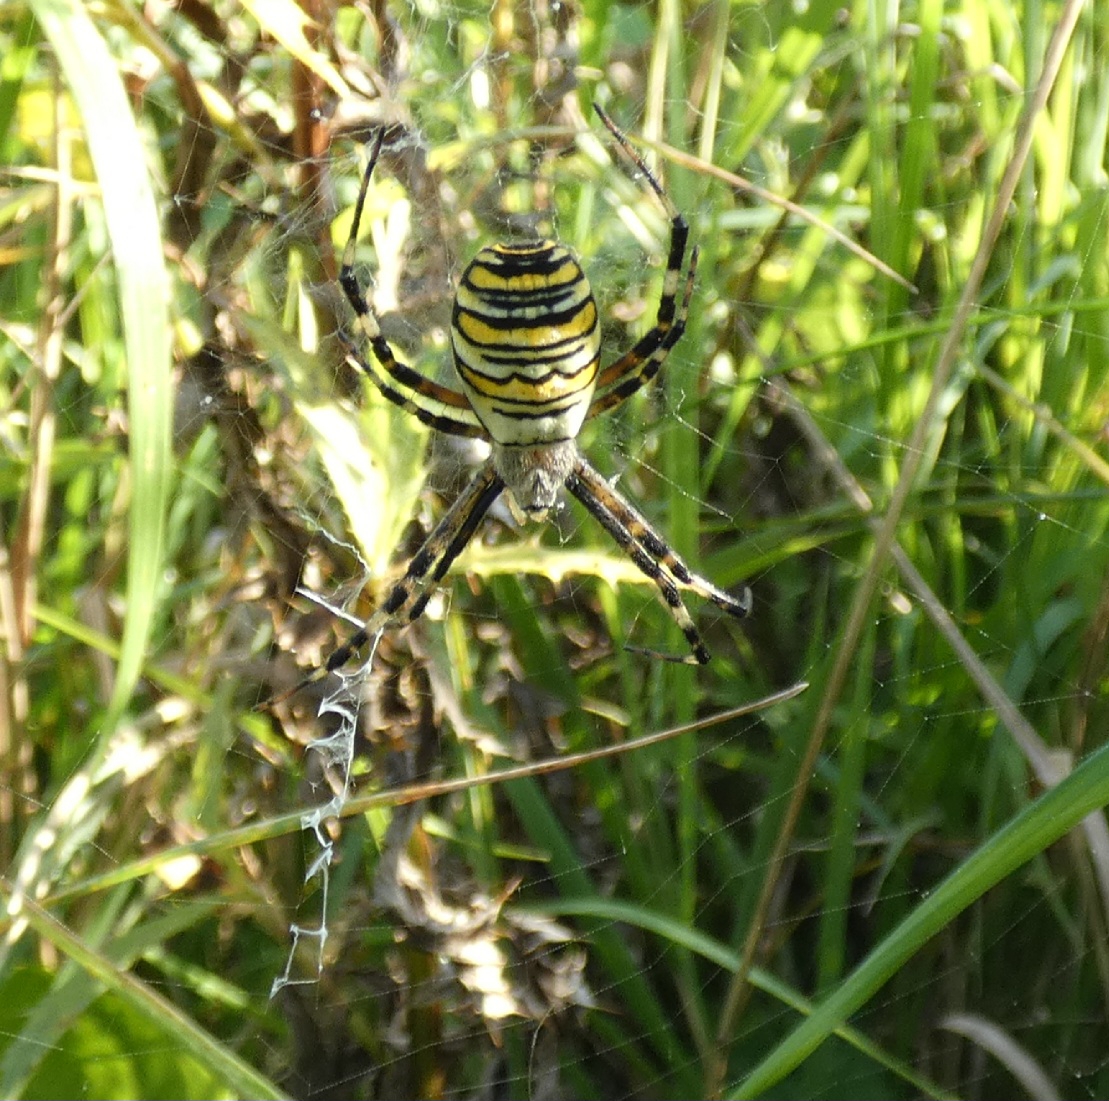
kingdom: Animalia
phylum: Arthropoda
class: Arachnida
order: Araneae
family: Araneidae
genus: Argiope
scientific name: Argiope bruennichi
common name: Hvepseedderkop
